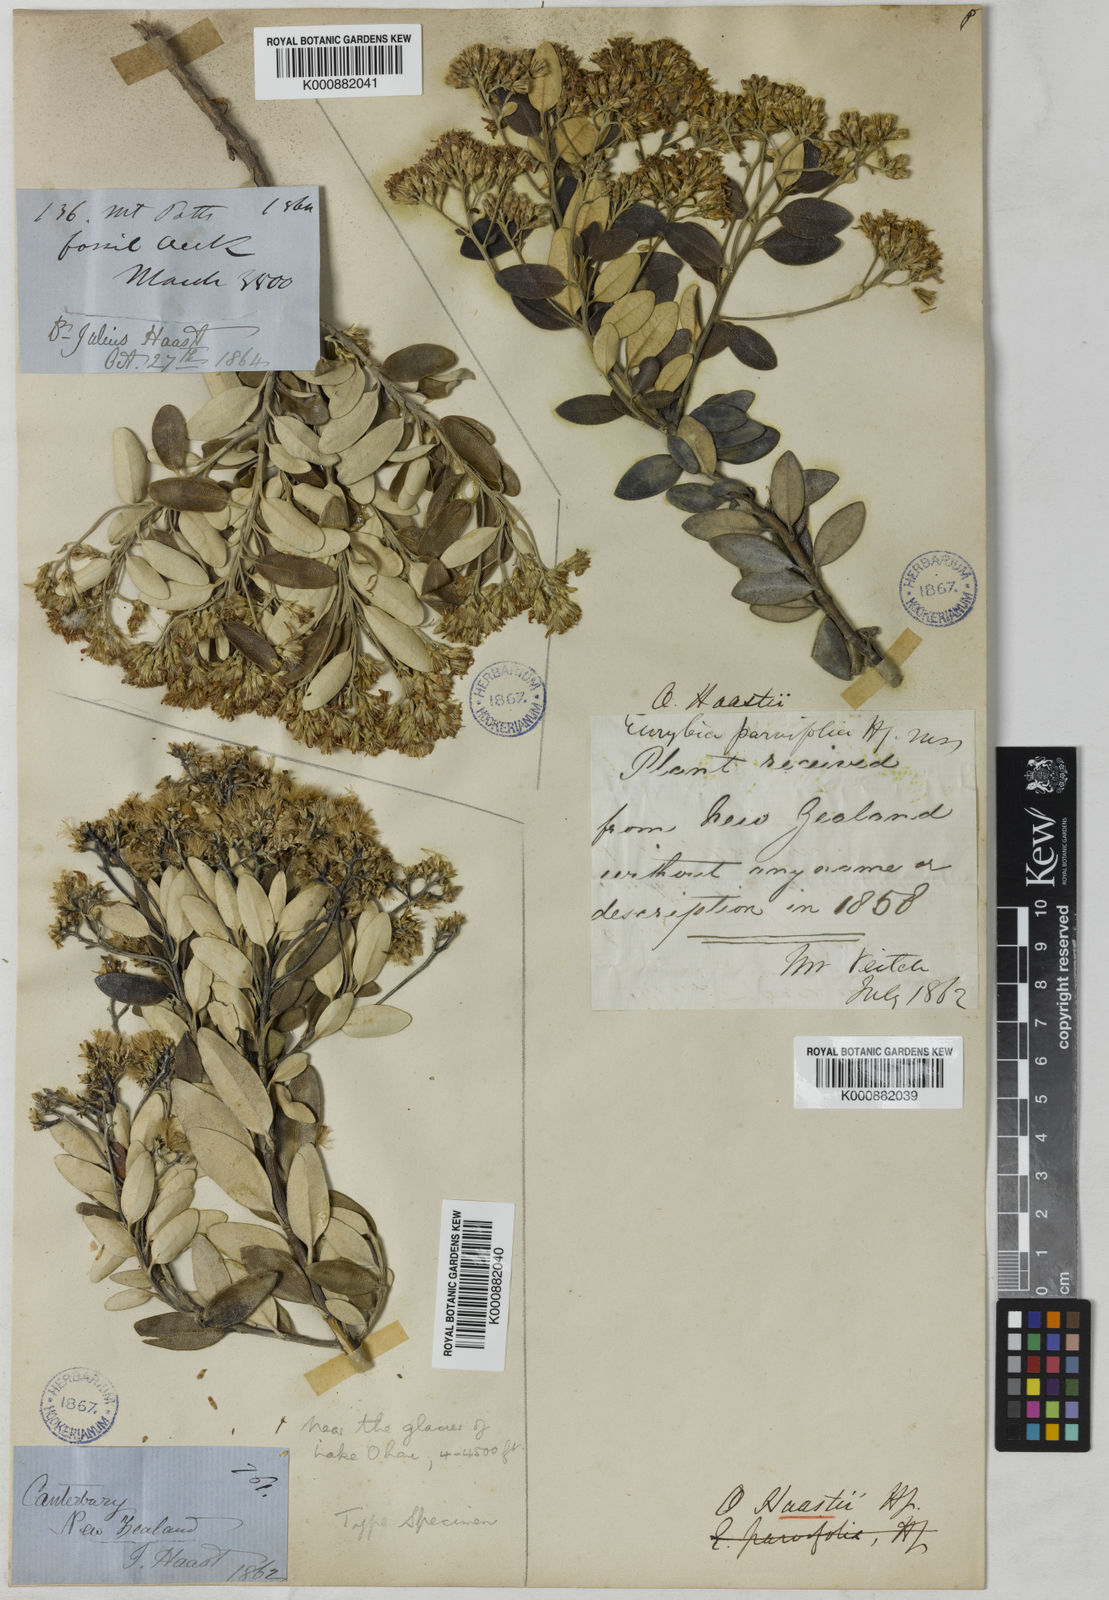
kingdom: Plantae
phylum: Tracheophyta
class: Magnoliopsida
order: Asterales
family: Asteraceae
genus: Olearia
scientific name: Olearia haastii
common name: Daisybush
